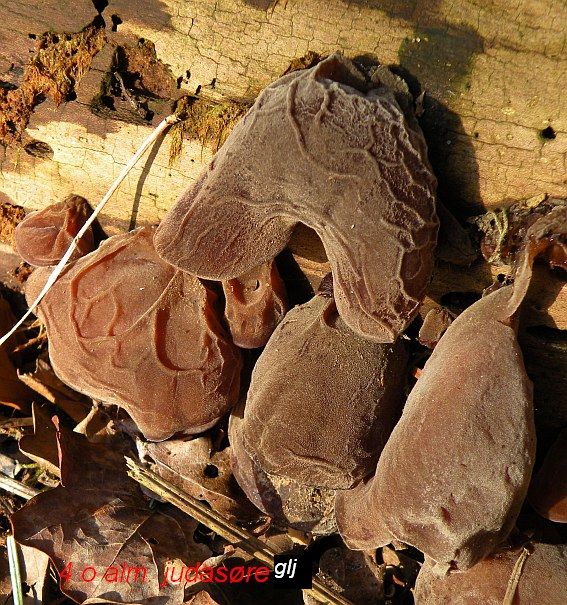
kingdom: Fungi
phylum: Basidiomycota
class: Agaricomycetes
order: Auriculariales
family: Auriculariaceae
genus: Auricularia
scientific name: Auricularia auricula-judae
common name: almindelig judasøre
